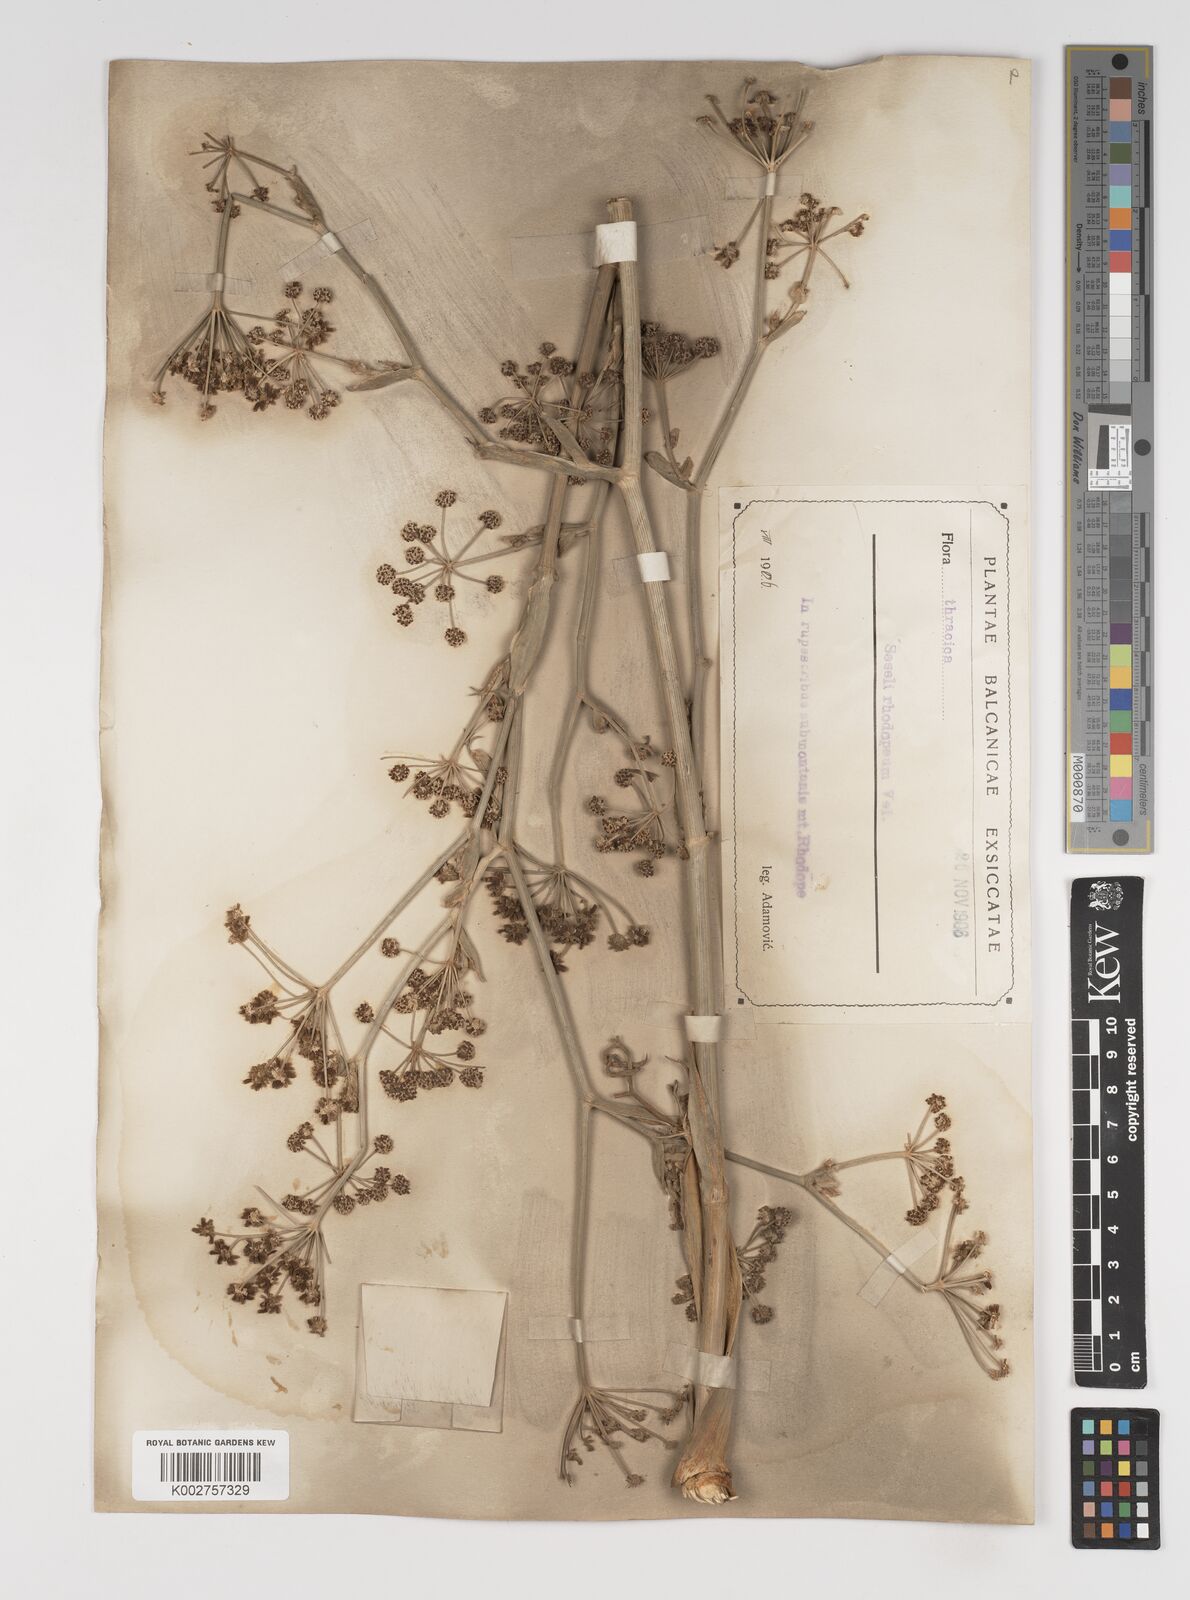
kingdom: Plantae
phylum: Tracheophyta
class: Magnoliopsida
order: Apiales
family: Apiaceae
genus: Seseli
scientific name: Seseli rhodopeum
